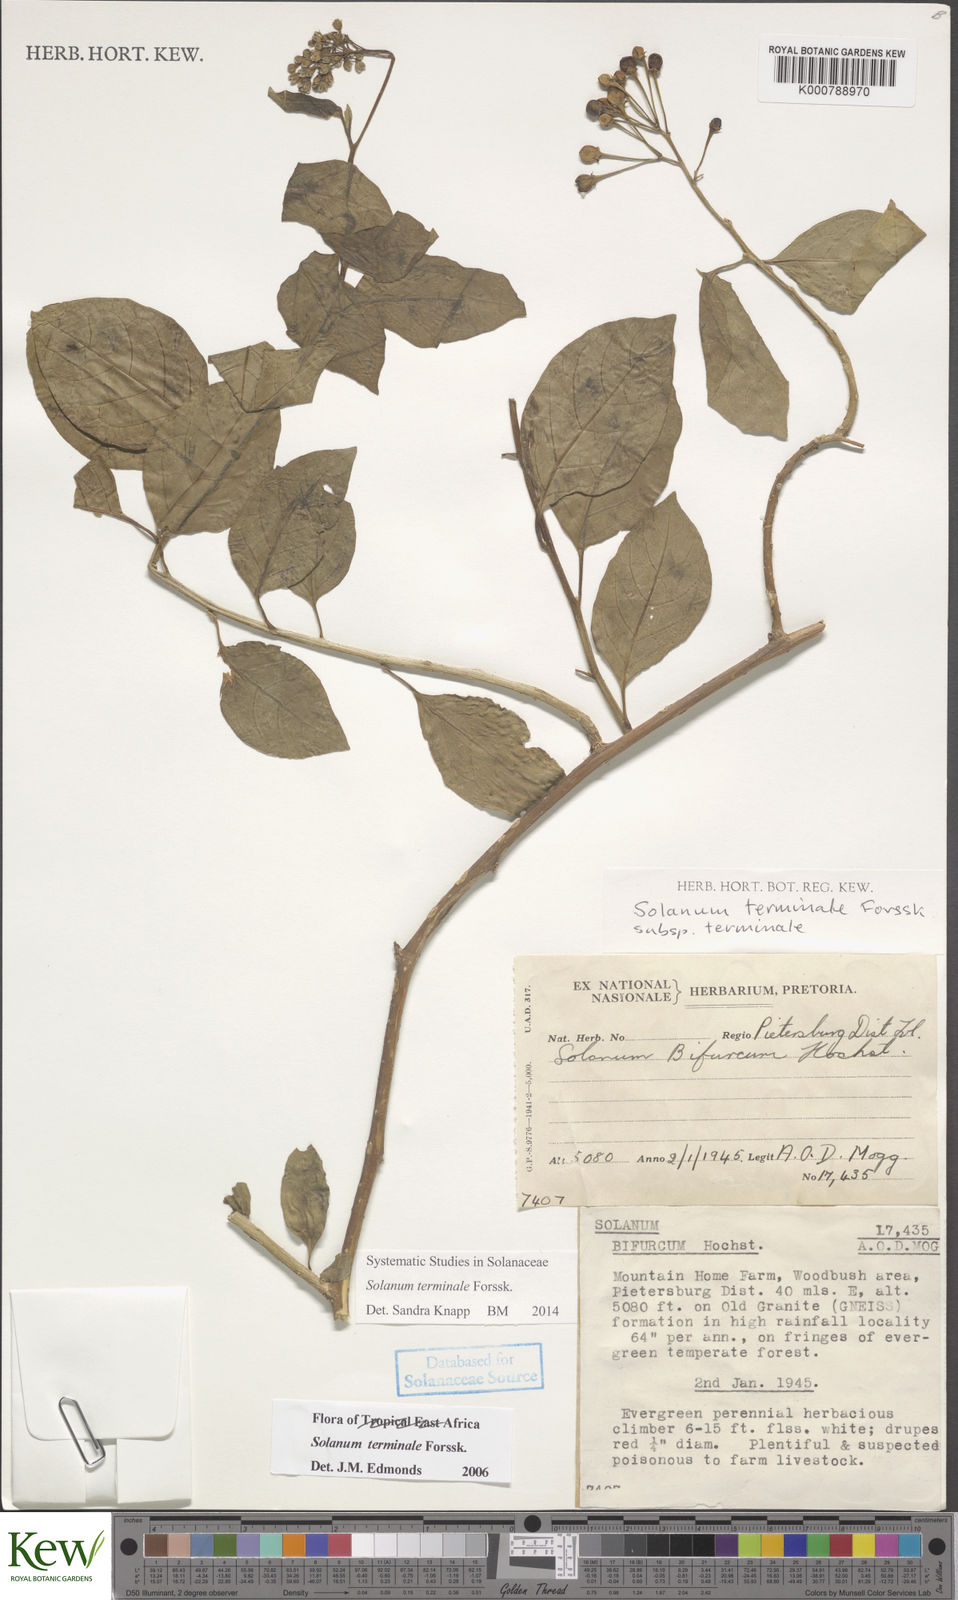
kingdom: Plantae
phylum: Tracheophyta
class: Magnoliopsida
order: Solanales
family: Solanaceae
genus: Solanum
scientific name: Solanum terminale
